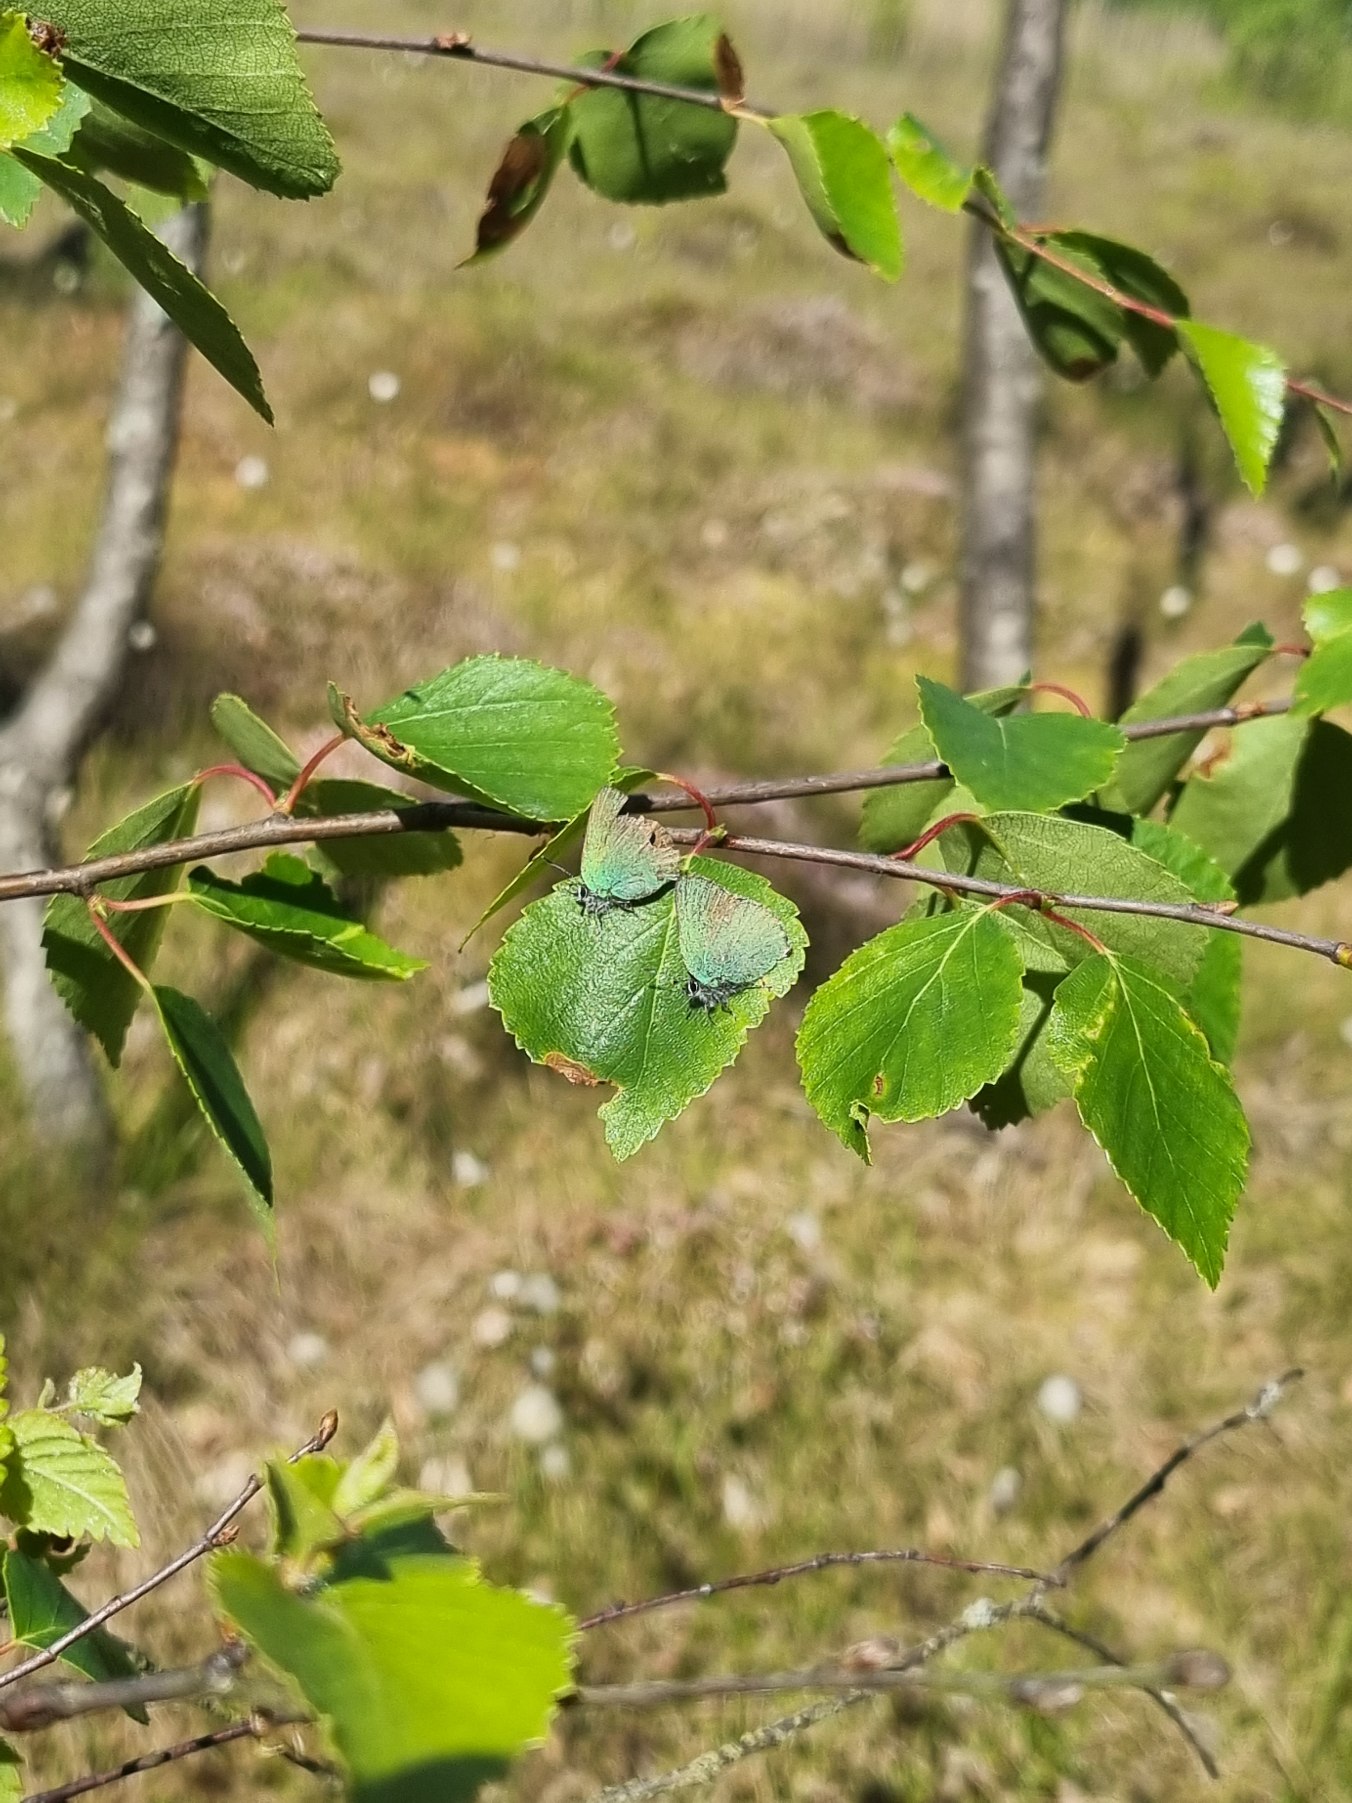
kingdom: Animalia
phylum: Arthropoda
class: Insecta
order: Lepidoptera
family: Lycaenidae
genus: Callophrys
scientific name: Callophrys rubi
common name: Grøn busksommerfugl
